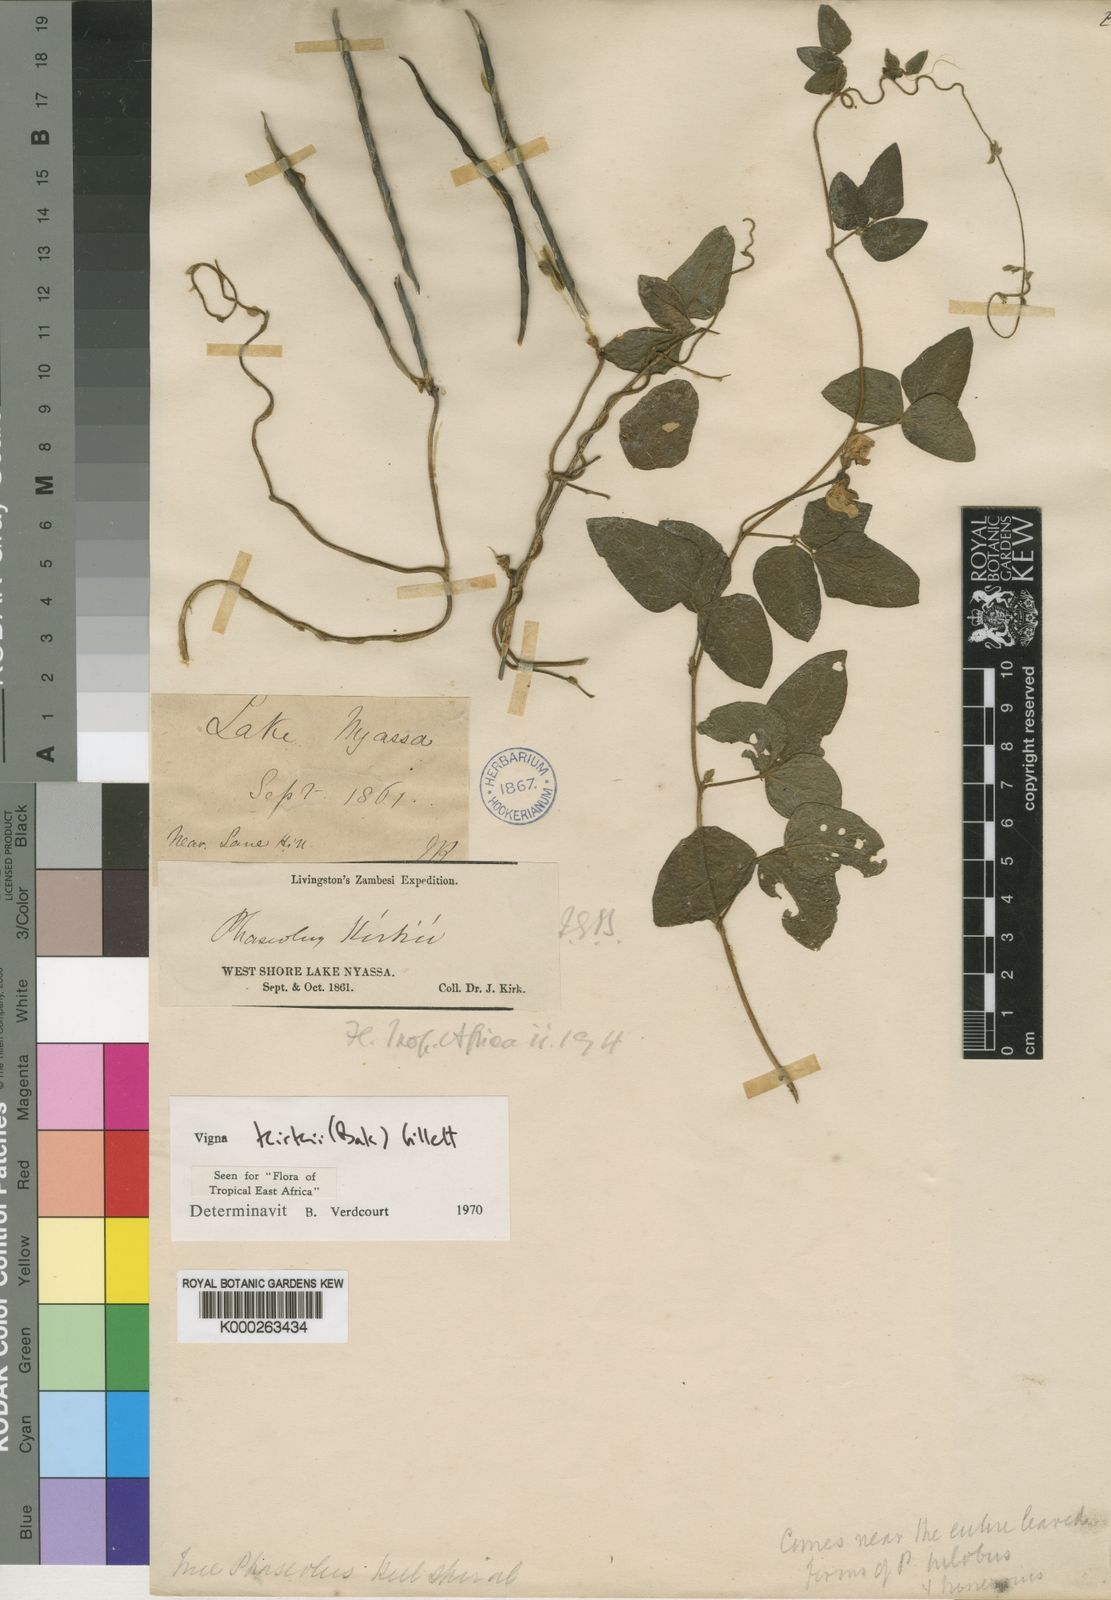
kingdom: Plantae
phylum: Tracheophyta
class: Magnoliopsida
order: Fabales
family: Fabaceae
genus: Vigna
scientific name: Vigna kirkii
